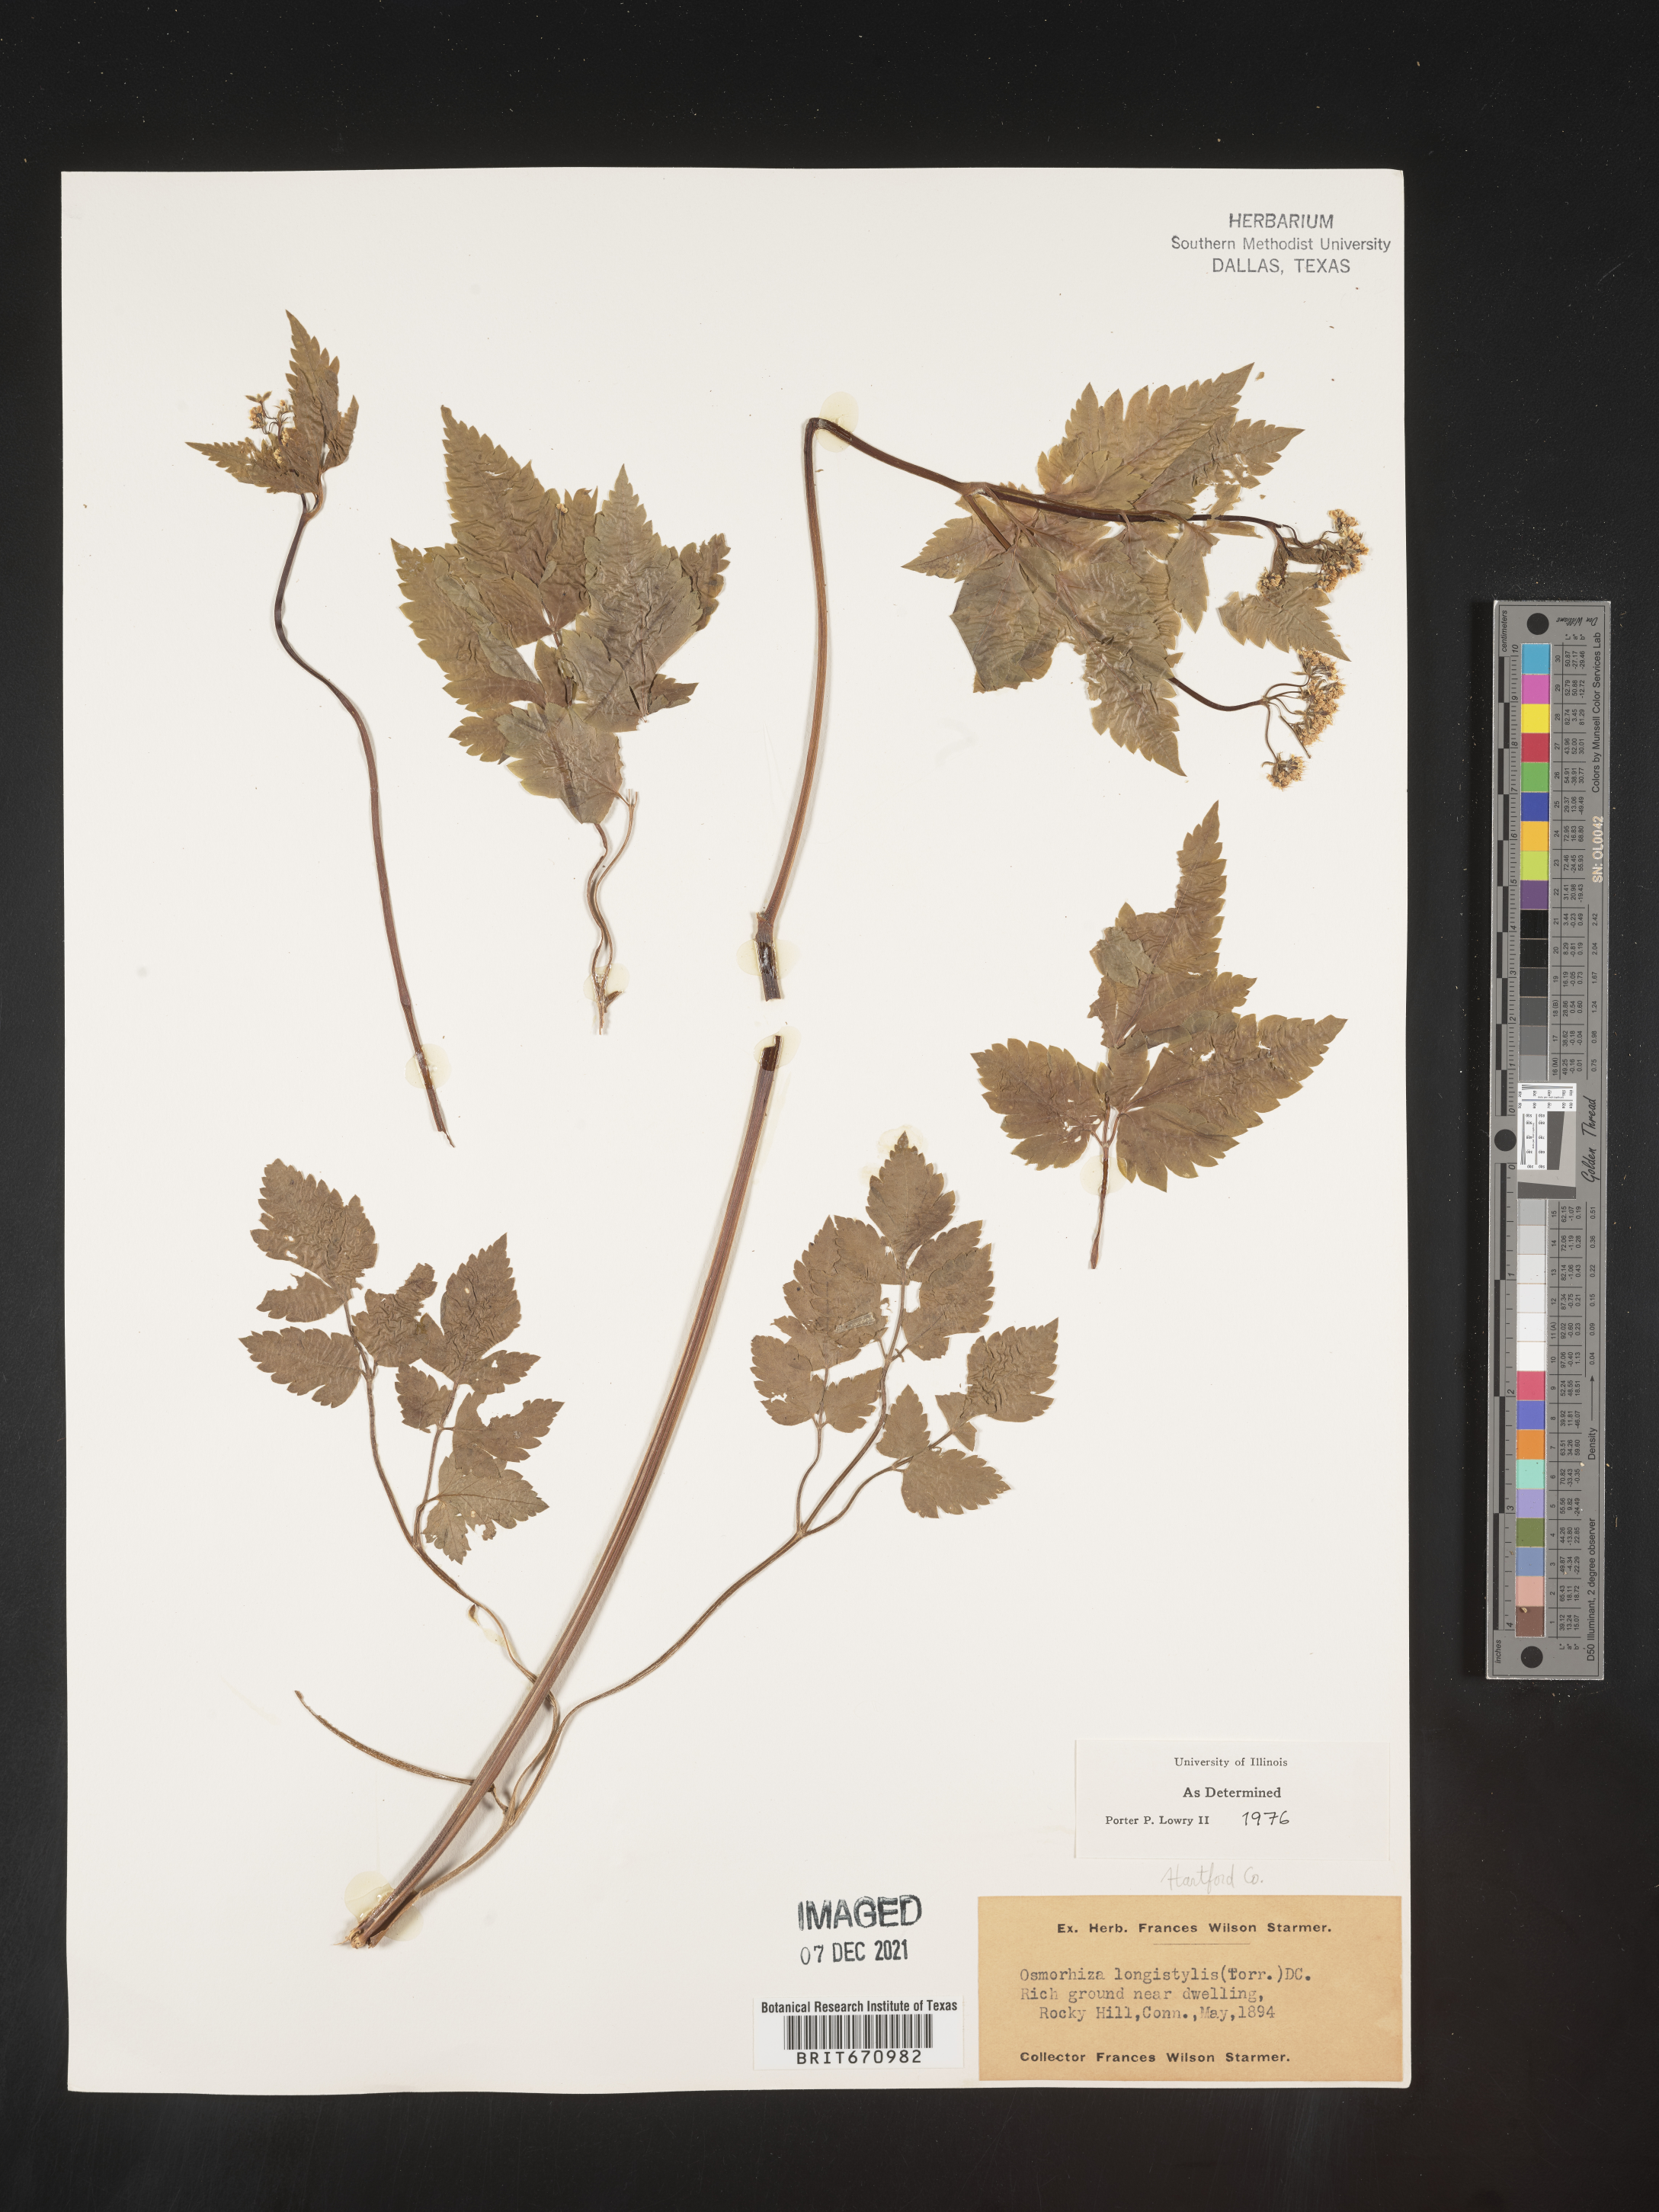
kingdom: Plantae
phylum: Tracheophyta
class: Magnoliopsida
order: Apiales
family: Apiaceae
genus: Osmorhiza
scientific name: Osmorhiza longistylis
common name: Smooth sweet cicely
